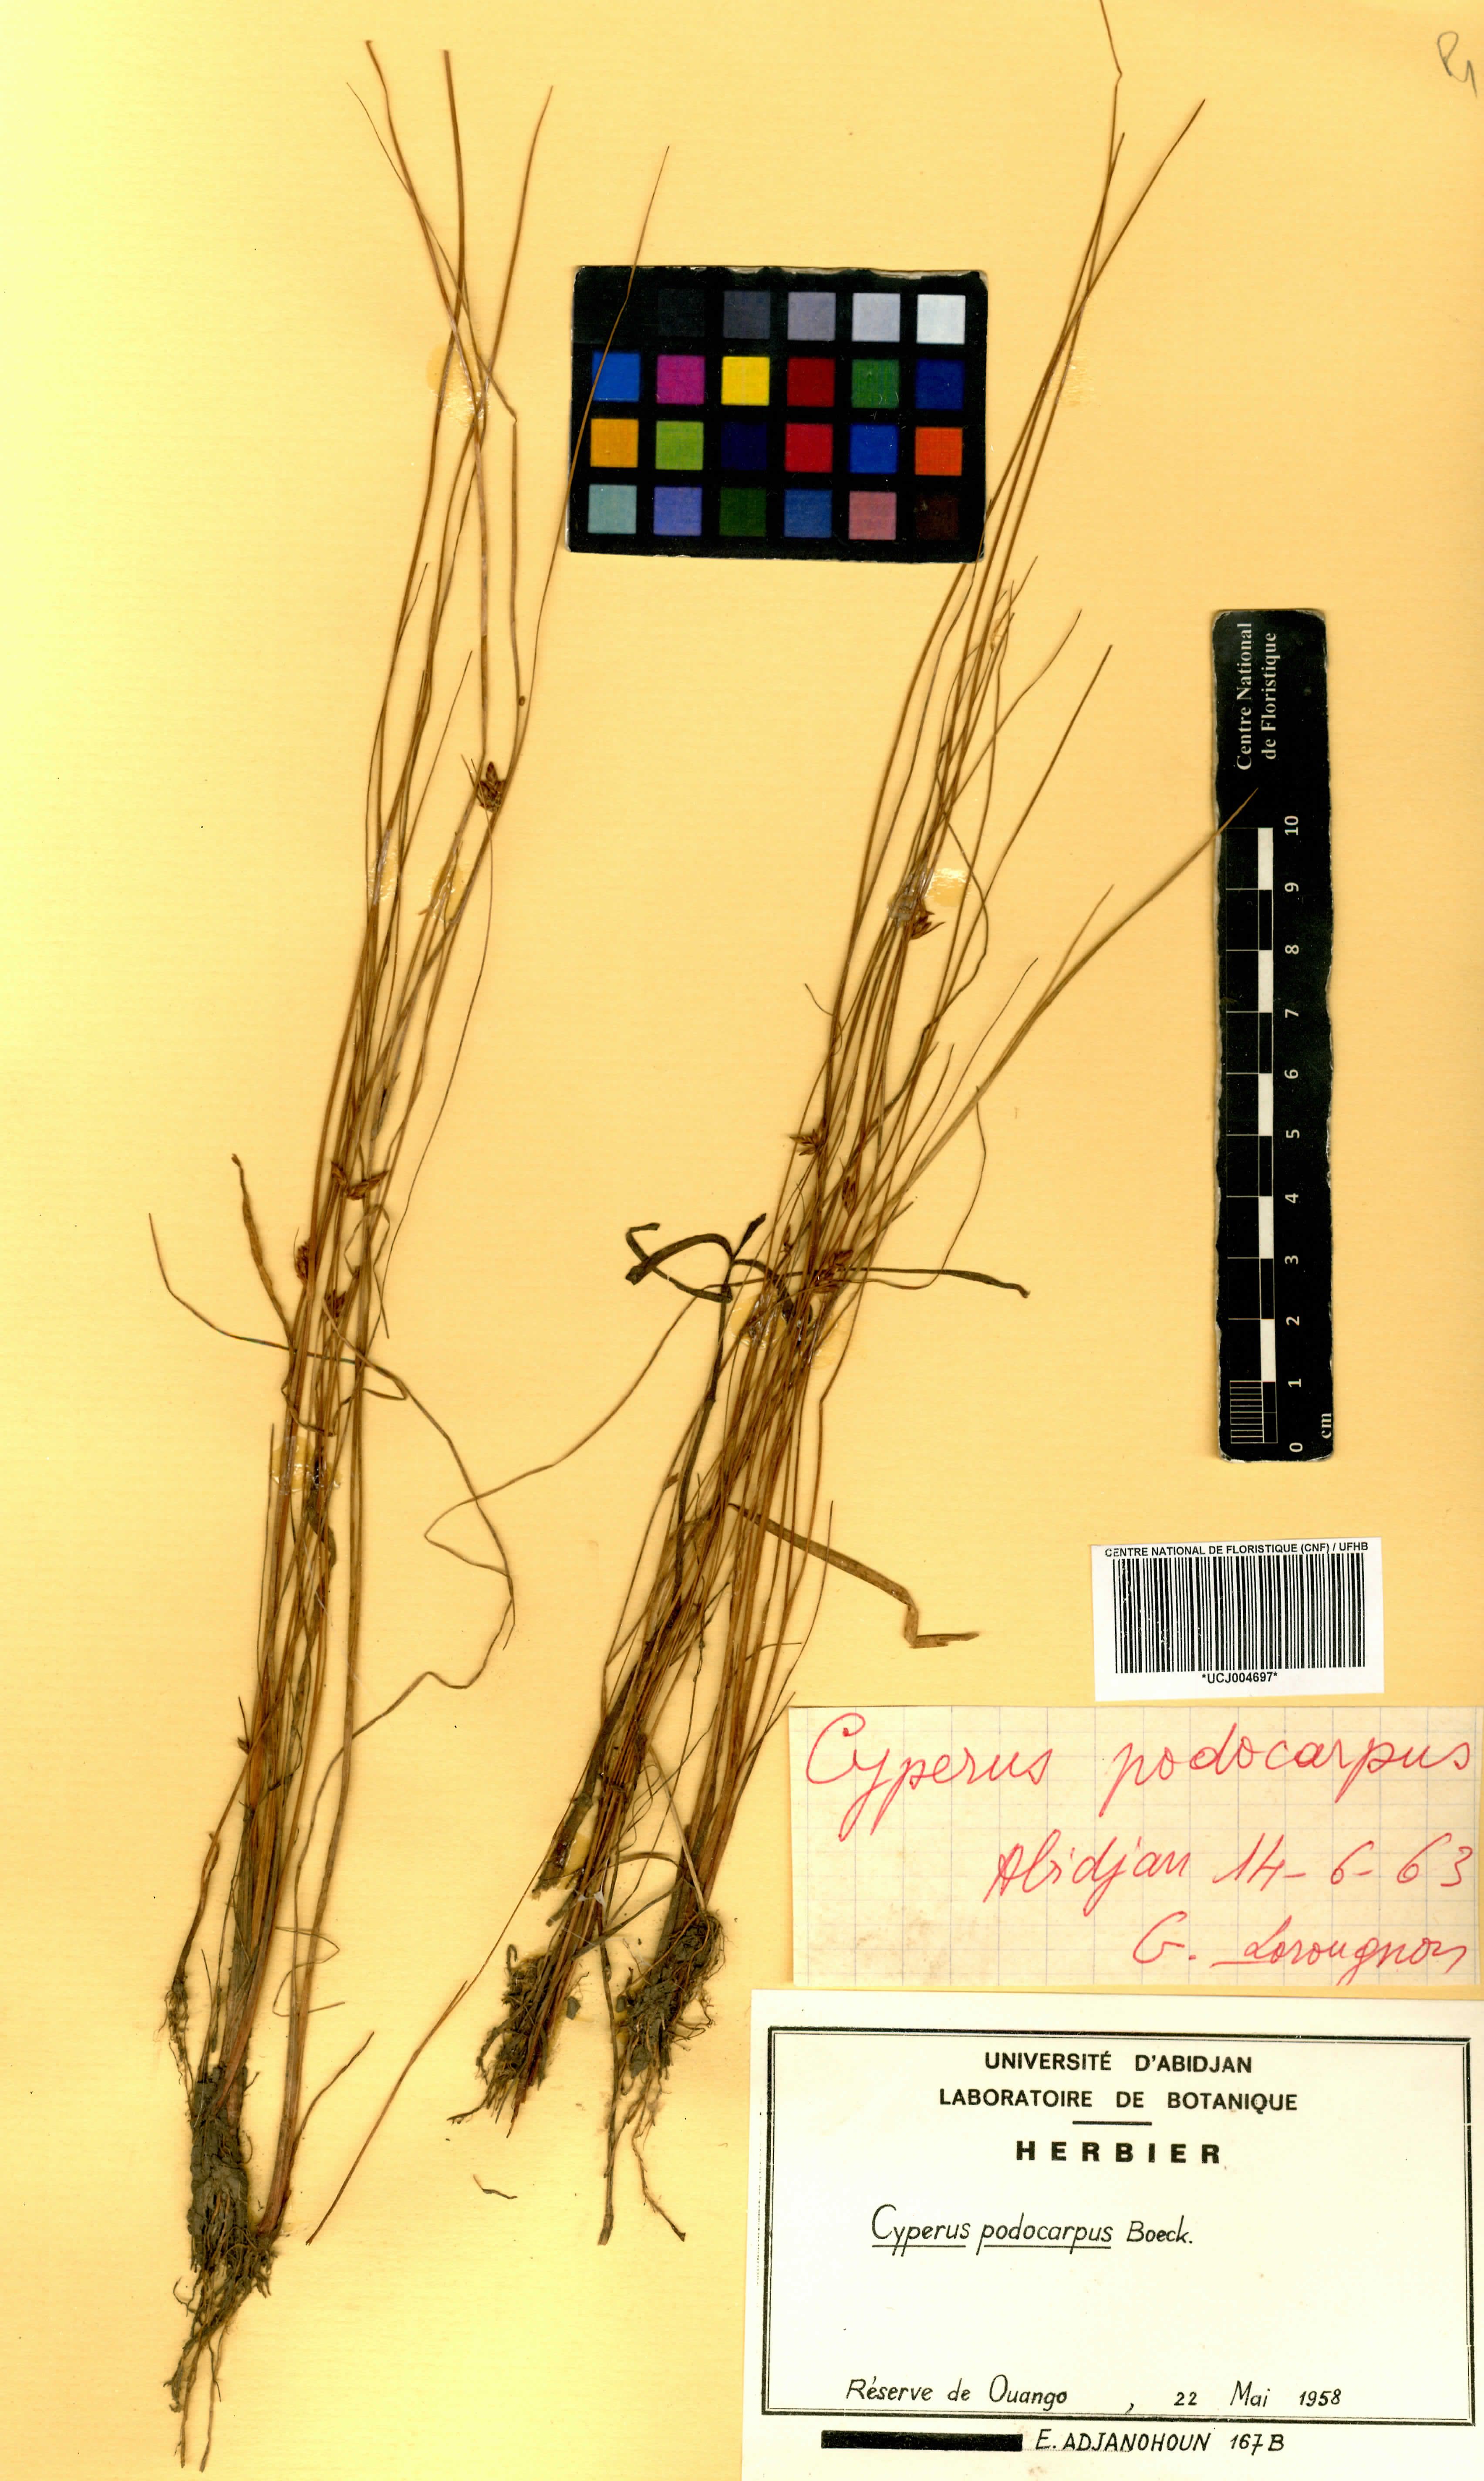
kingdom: Plantae
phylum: Tracheophyta
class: Liliopsida
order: Poales
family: Cyperaceae
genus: Cyperus
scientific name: Cyperus podocarpus
